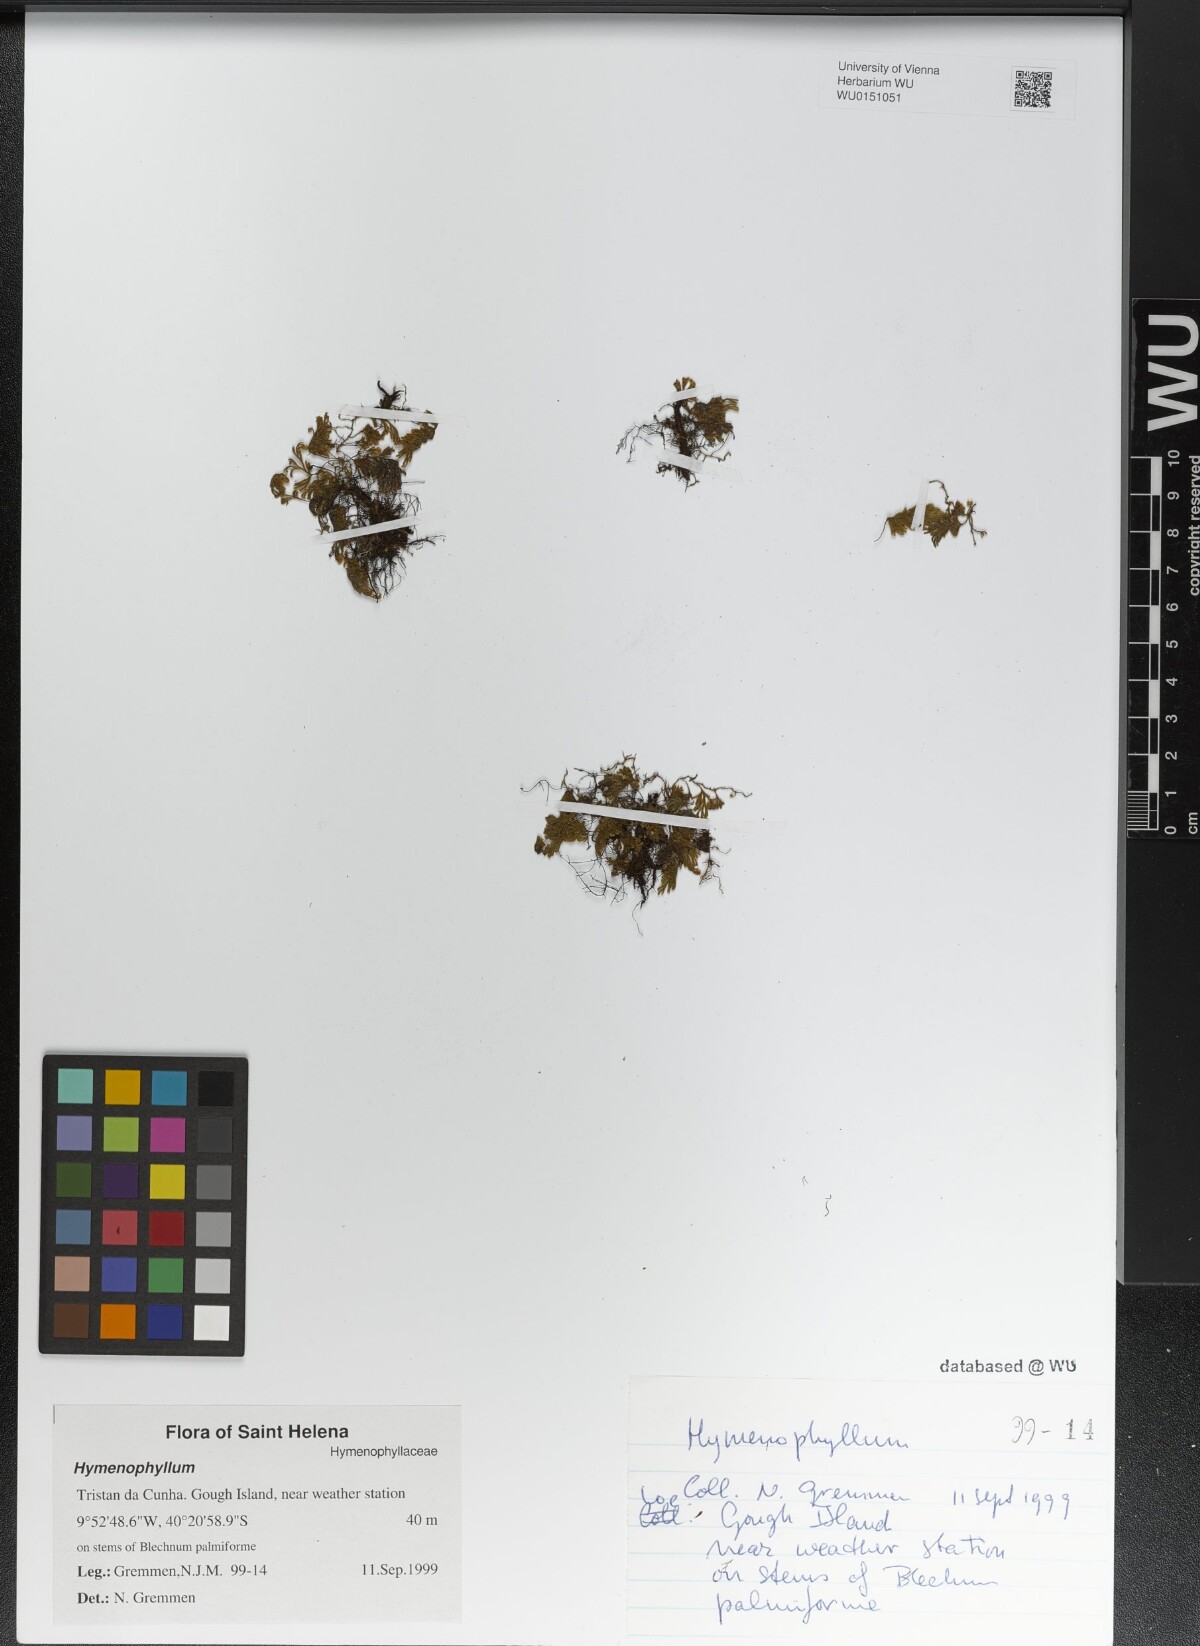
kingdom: Plantae
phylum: Tracheophyta
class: Polypodiopsida
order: Hymenophyllales
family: Hymenophyllaceae
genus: Hymenophyllum
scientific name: Hymenophyllum
